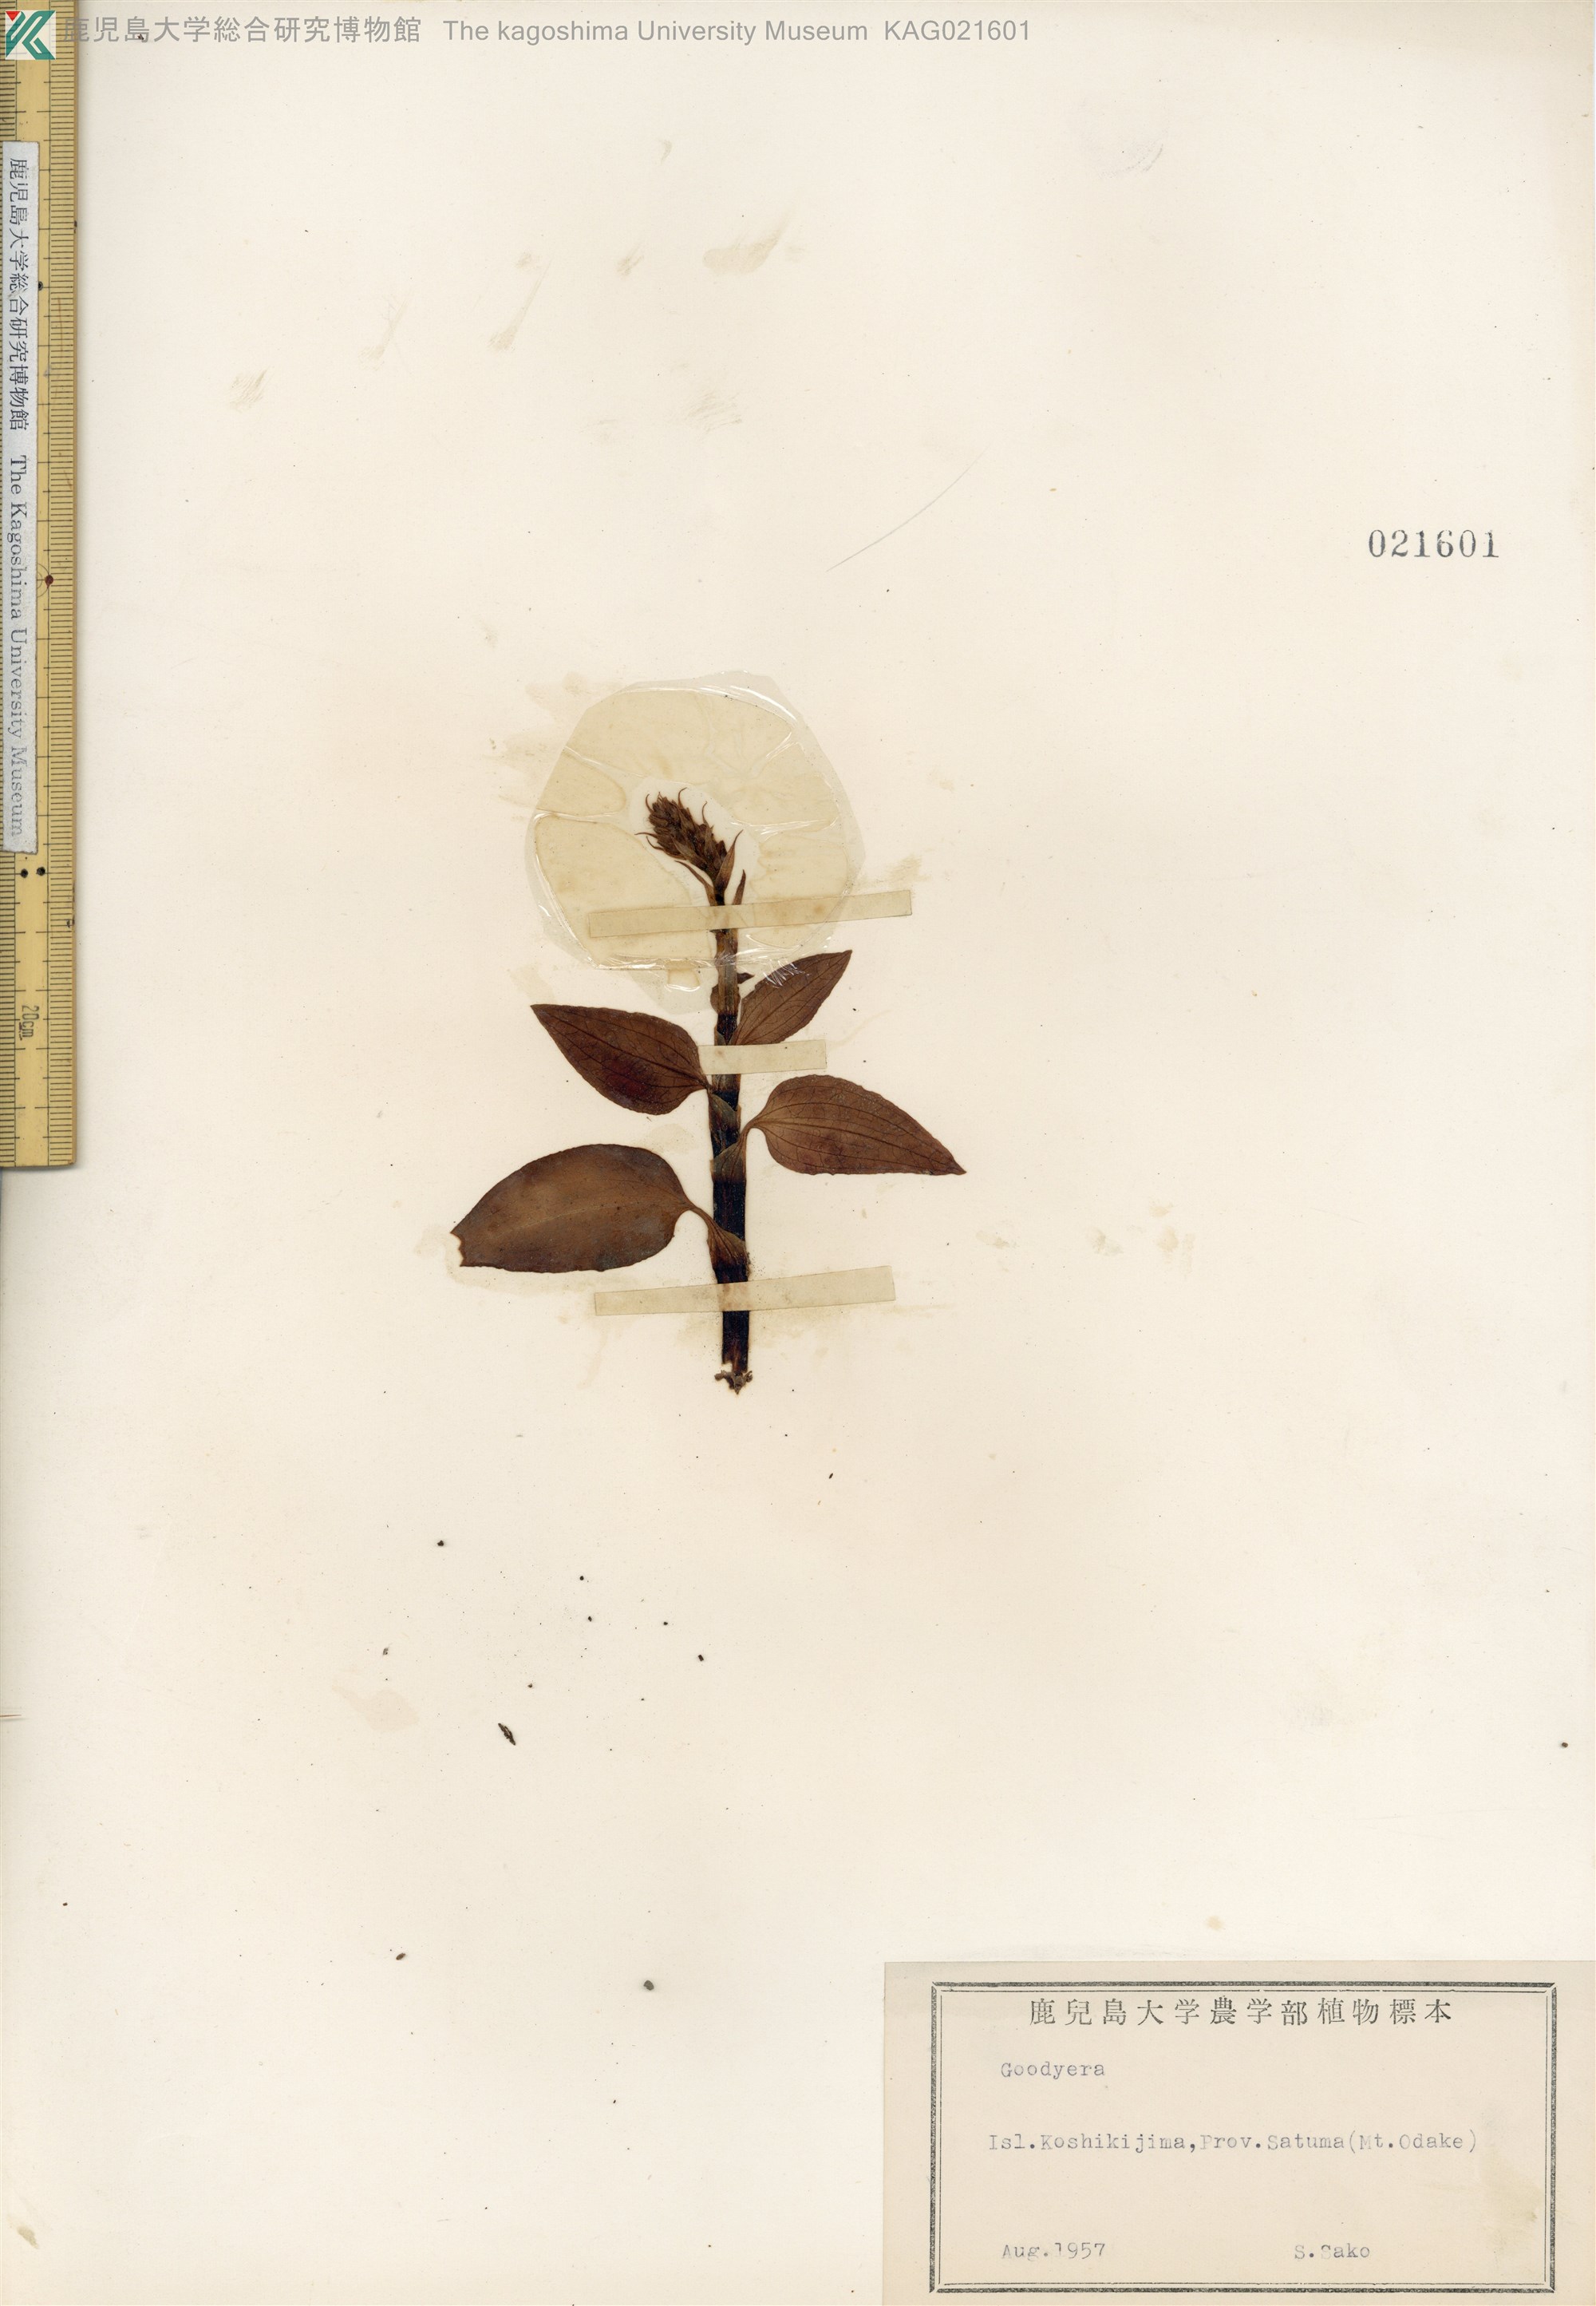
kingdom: Plantae
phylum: Tracheophyta
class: Liliopsida
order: Asparagales
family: Orchidaceae
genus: Goodyera
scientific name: Goodyera velutina
